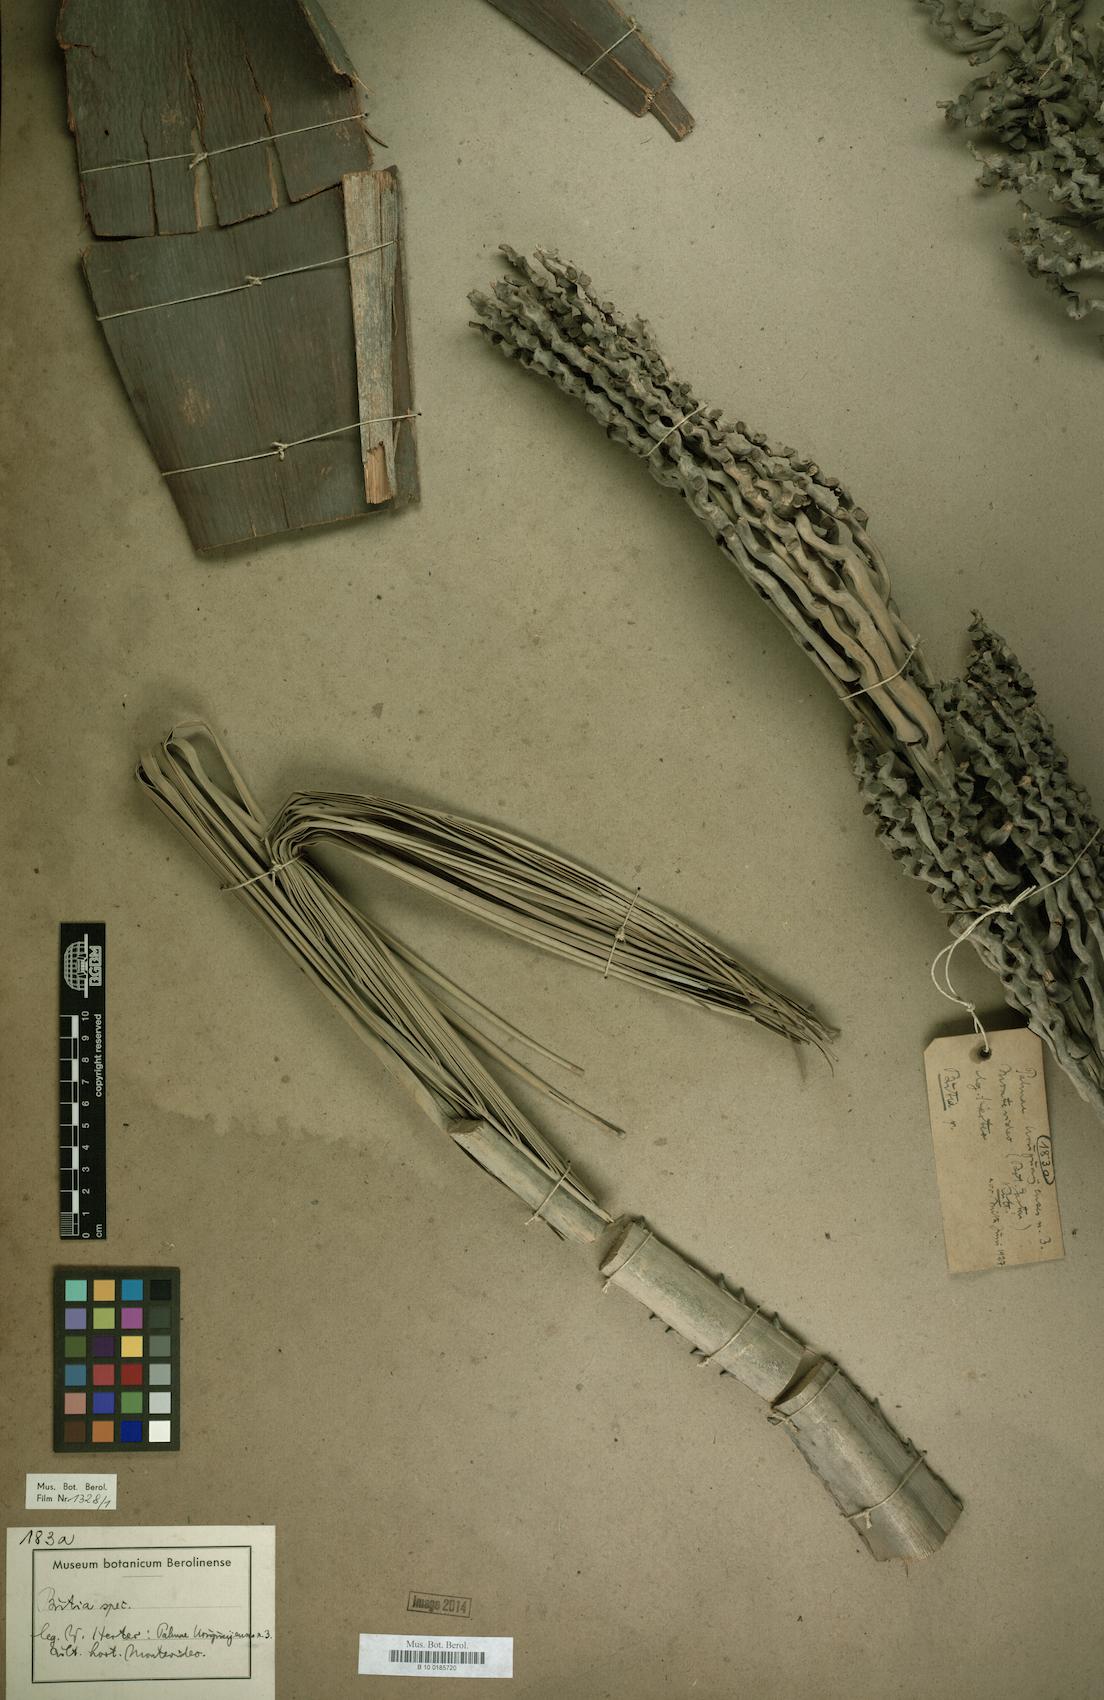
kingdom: Plantae
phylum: Tracheophyta
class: Liliopsida
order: Arecales
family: Arecaceae
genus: Butia
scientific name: Butia
